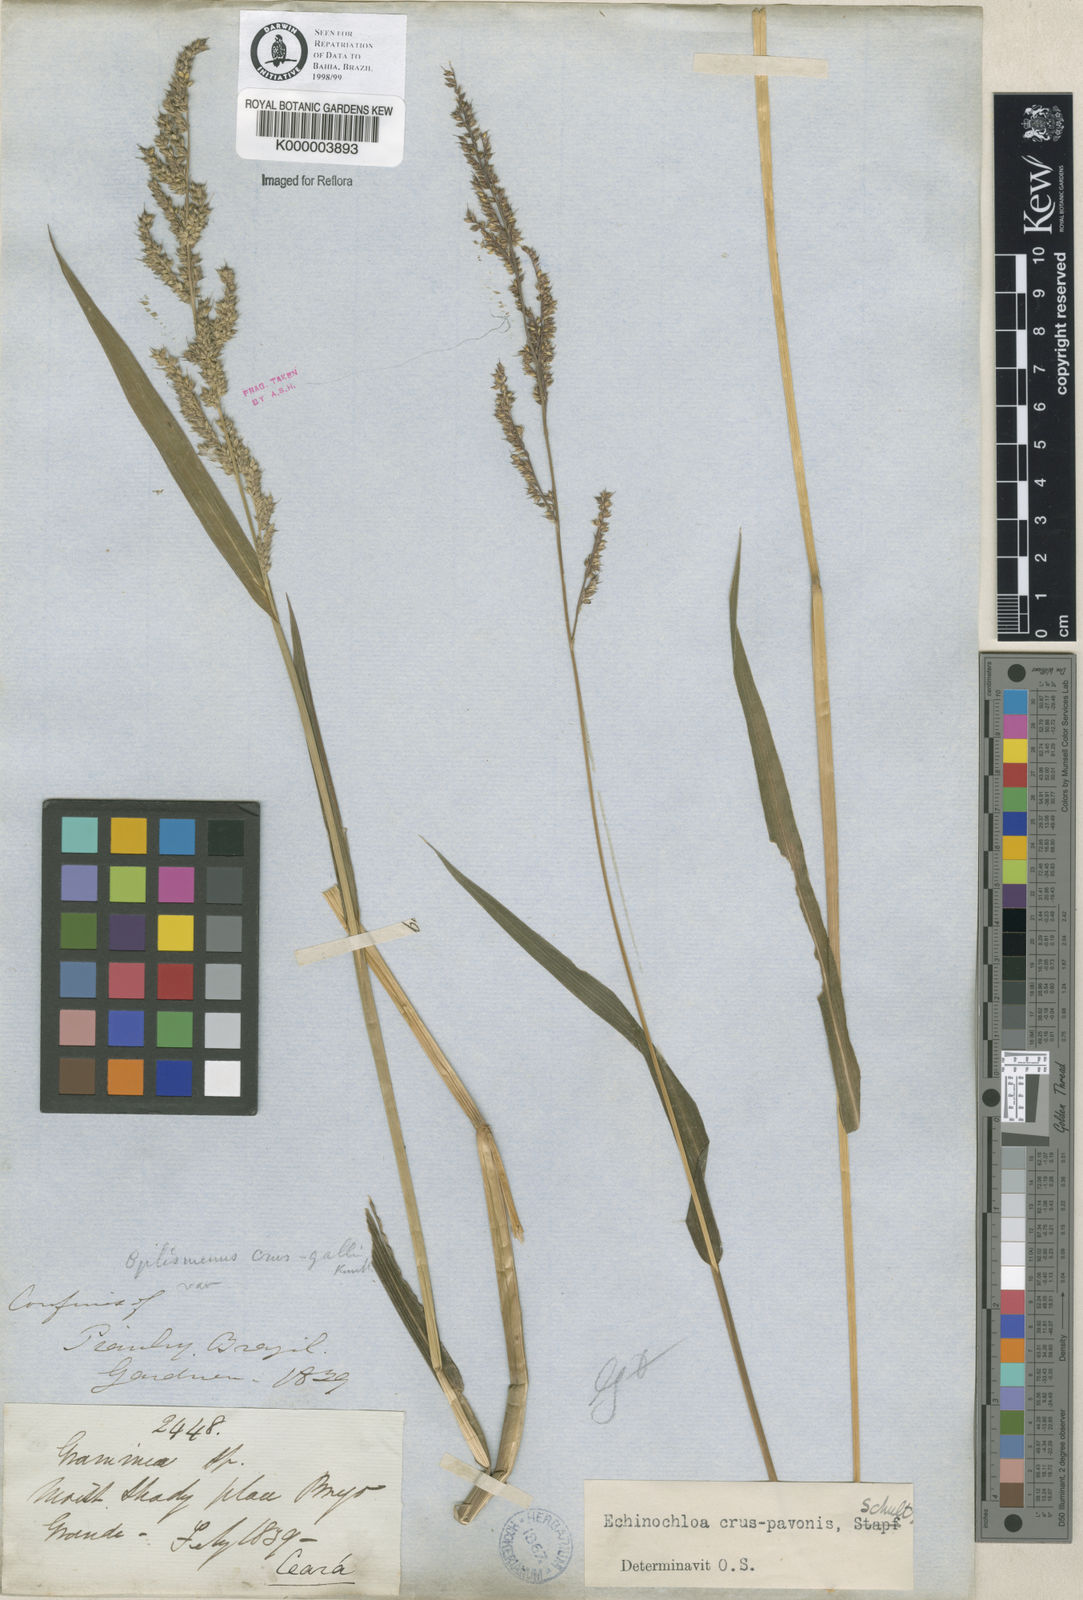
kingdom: Plantae
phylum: Tracheophyta
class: Liliopsida
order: Poales
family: Poaceae
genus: Echinochloa
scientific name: Echinochloa crus-pavonis
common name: Gulf cockspur grass
